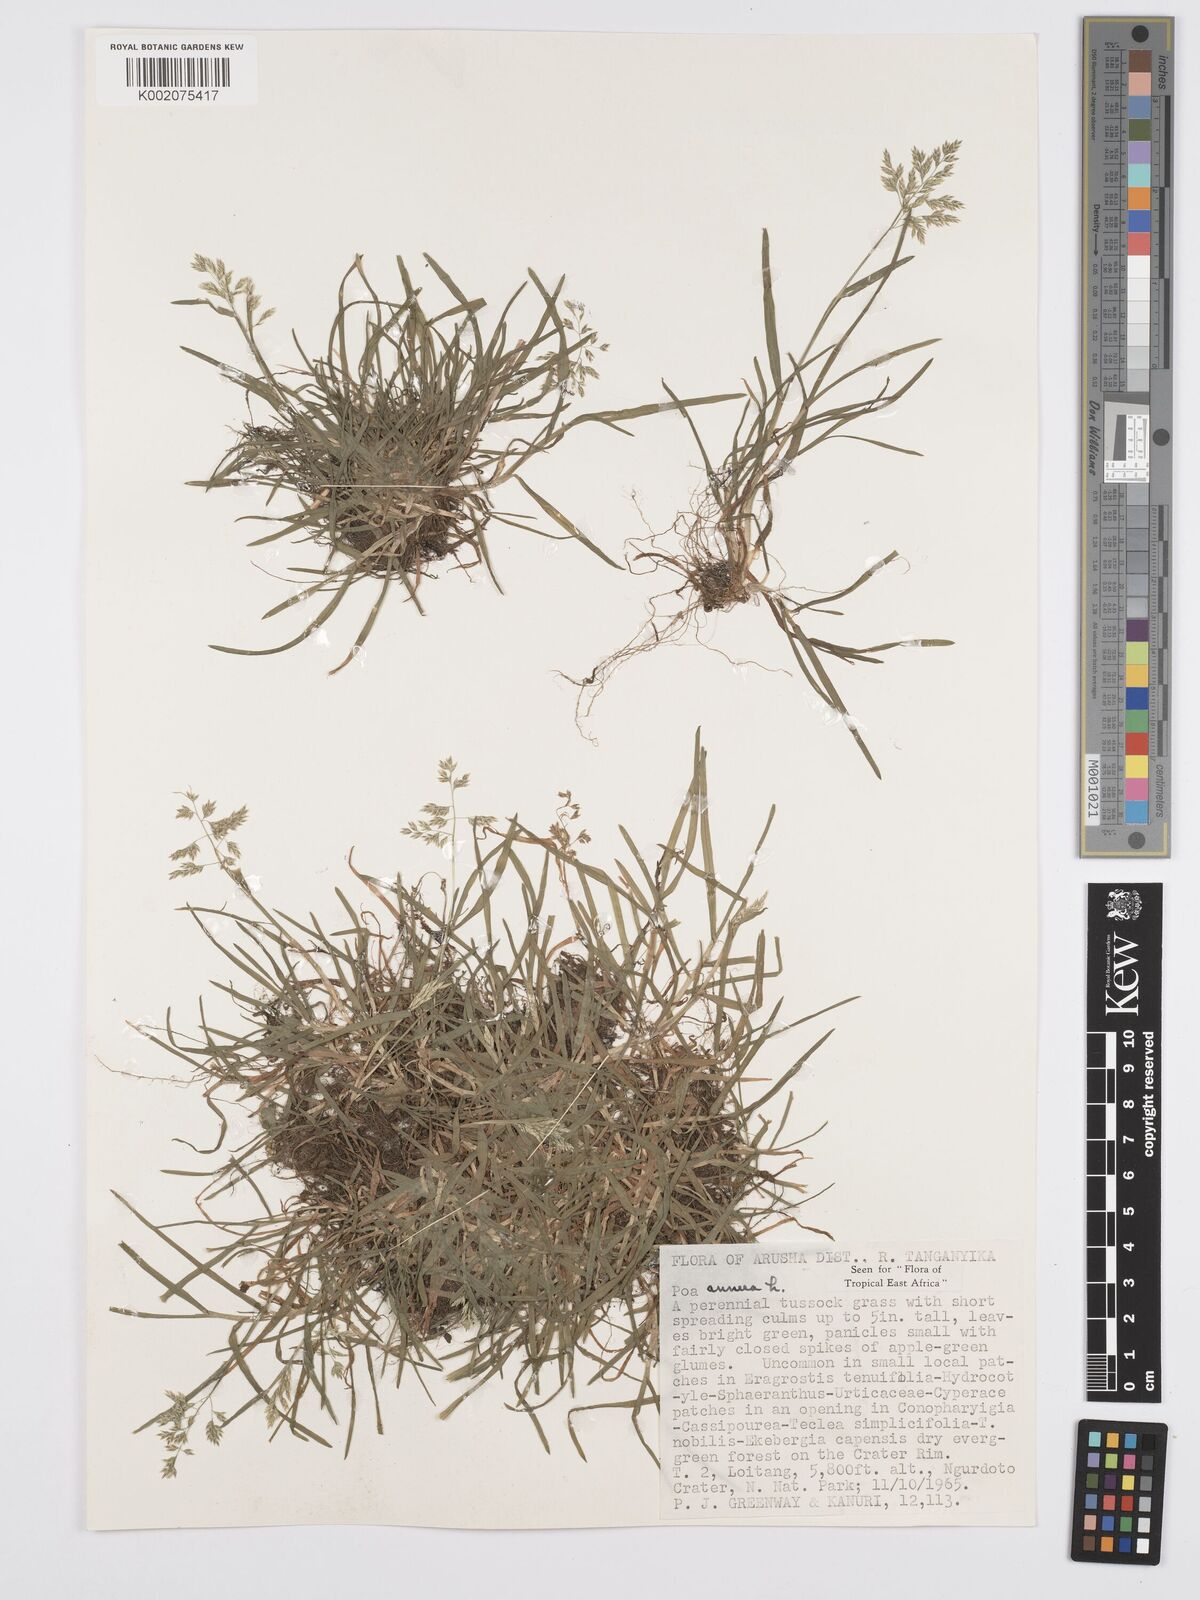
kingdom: Plantae
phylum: Tracheophyta
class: Liliopsida
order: Poales
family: Poaceae
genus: Poa
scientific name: Poa annua
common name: Annual bluegrass
